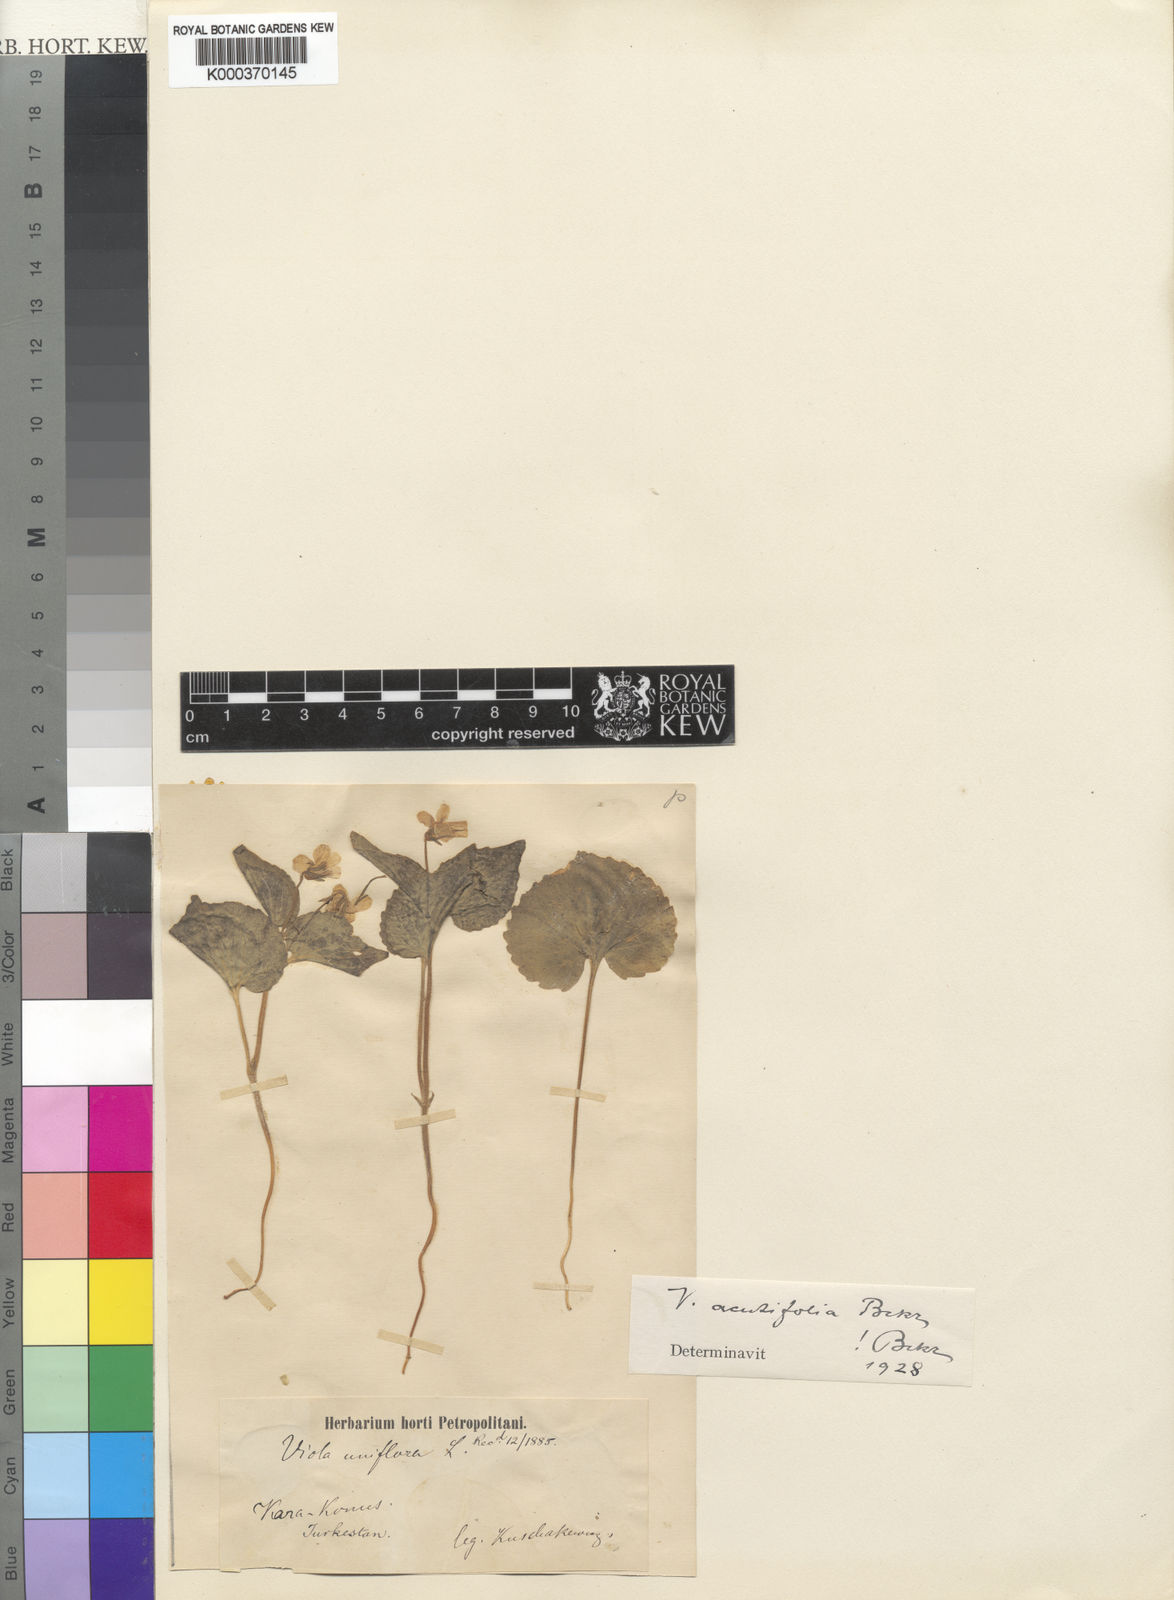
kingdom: Plantae
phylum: Tracheophyta
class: Magnoliopsida
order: Malpighiales
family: Violaceae
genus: Viola
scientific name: Viola uniflora
